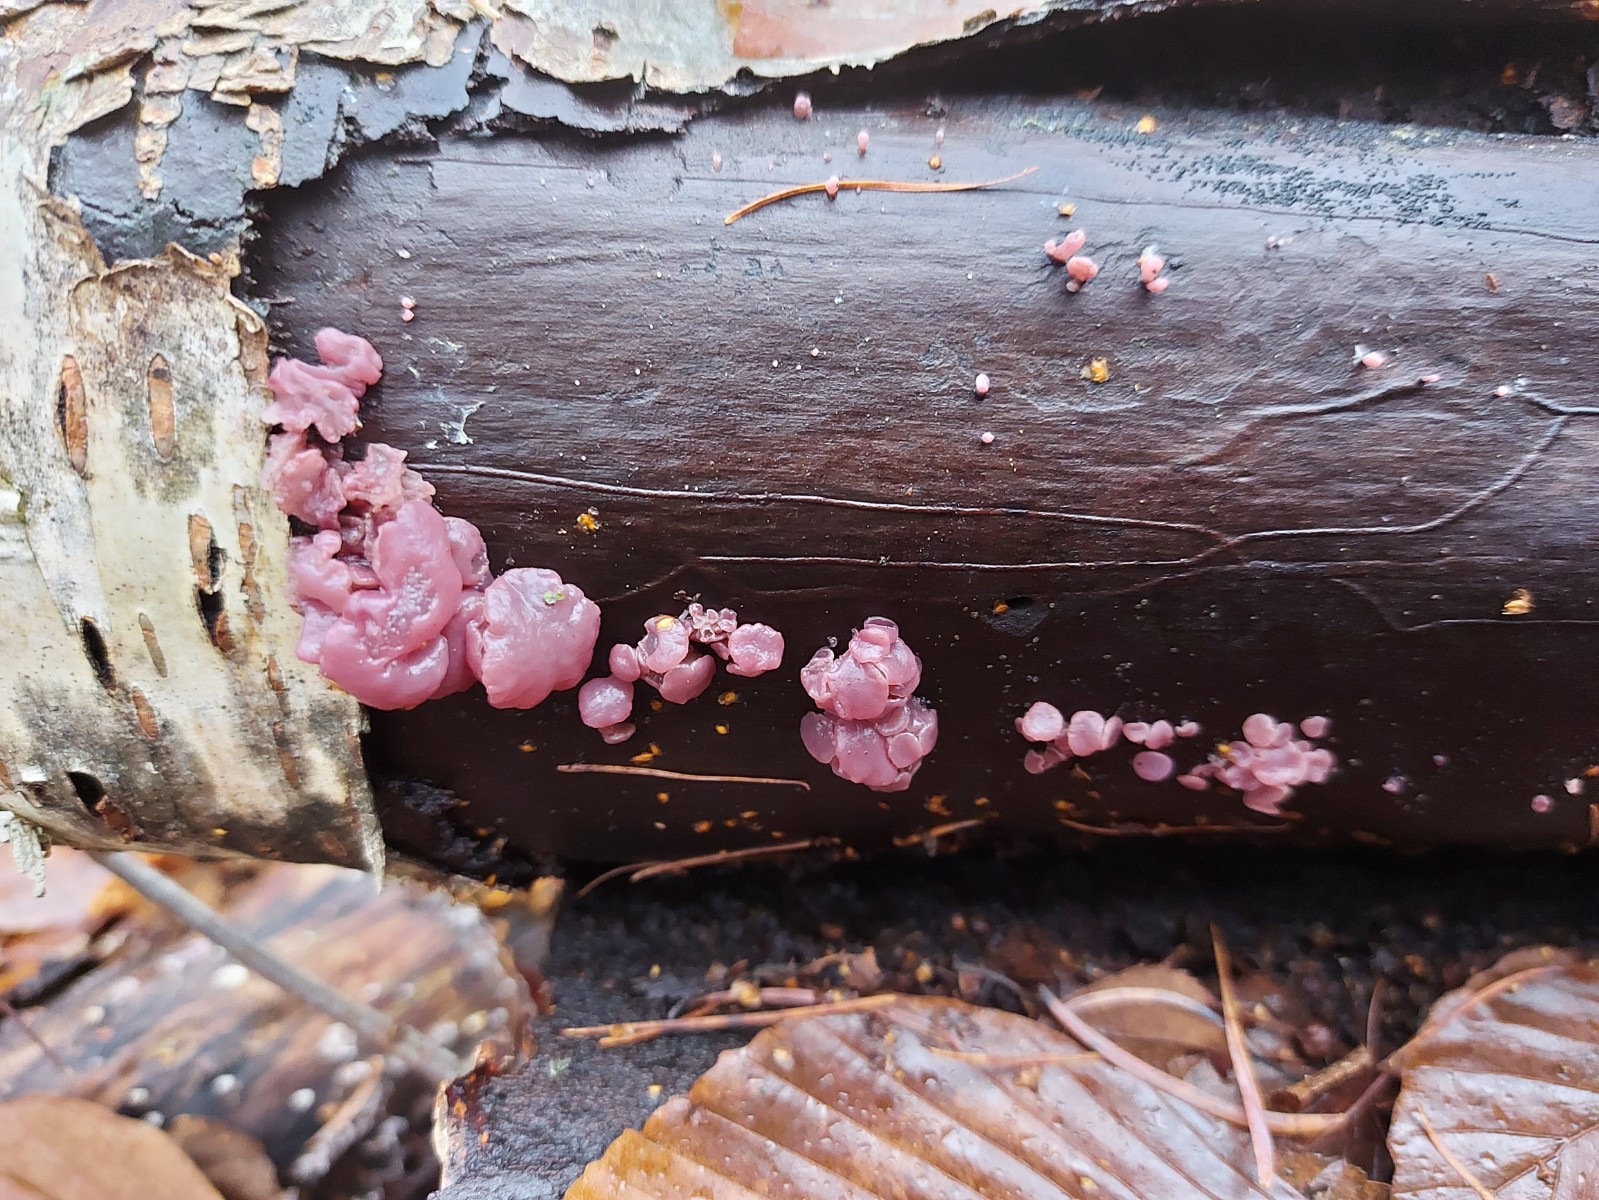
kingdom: Fungi
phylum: Ascomycota
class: Leotiomycetes
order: Helotiales
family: Gelatinodiscaceae
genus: Ascocoryne
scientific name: Ascocoryne sarcoides
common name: rødlilla sejskive
